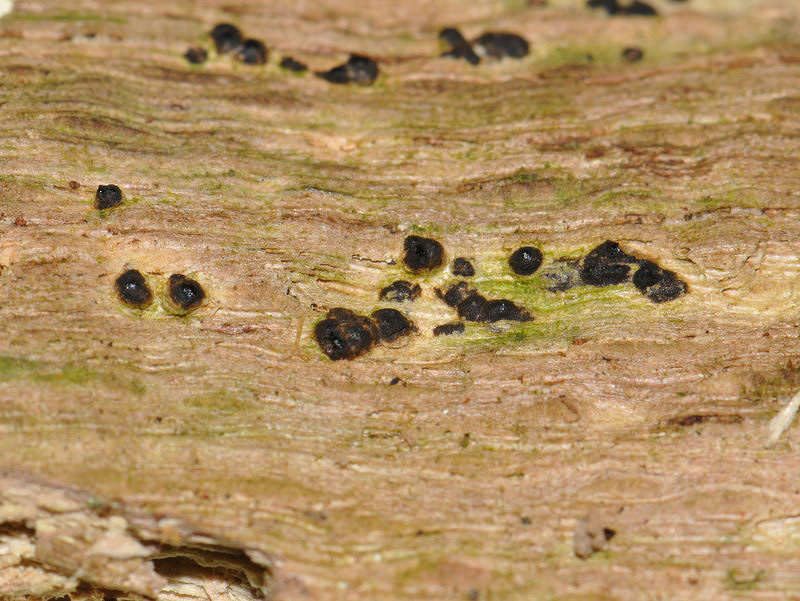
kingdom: Fungi
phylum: Ascomycota
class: Sordariomycetes
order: Xylariales
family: Xylariaceae
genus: Nemania
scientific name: Nemania confluens
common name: indsænket kuldyne
